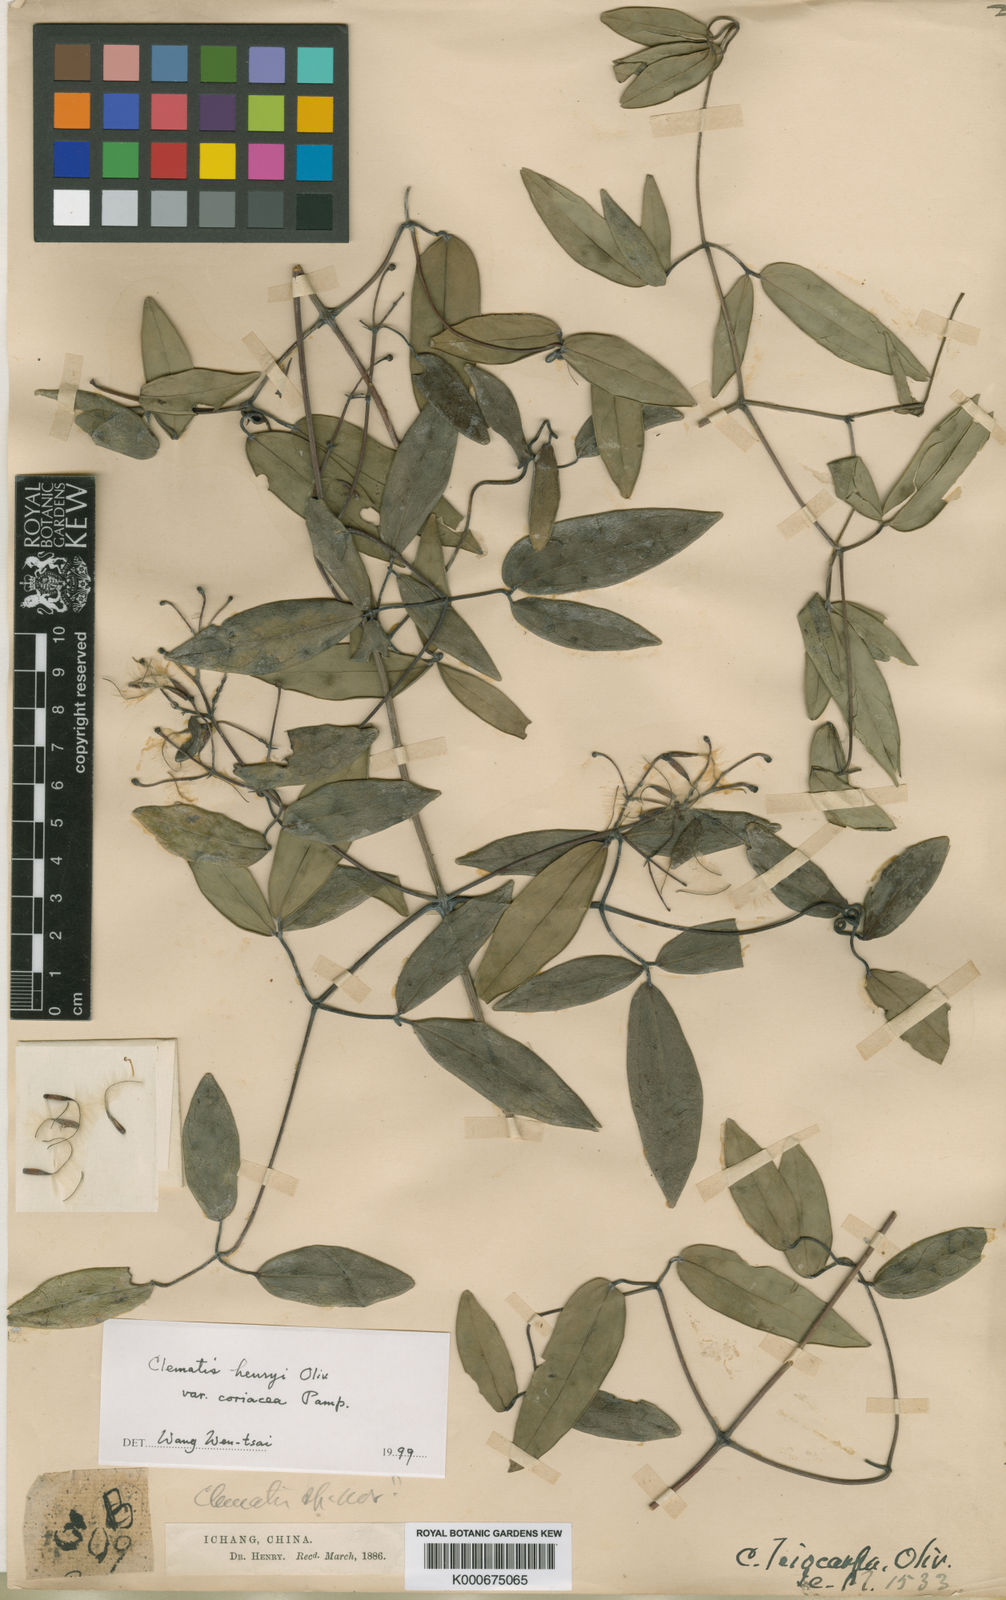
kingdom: Plantae
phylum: Tracheophyta
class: Magnoliopsida
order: Ranunculales
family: Ranunculaceae
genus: Clematis
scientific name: Clematis uncinata
